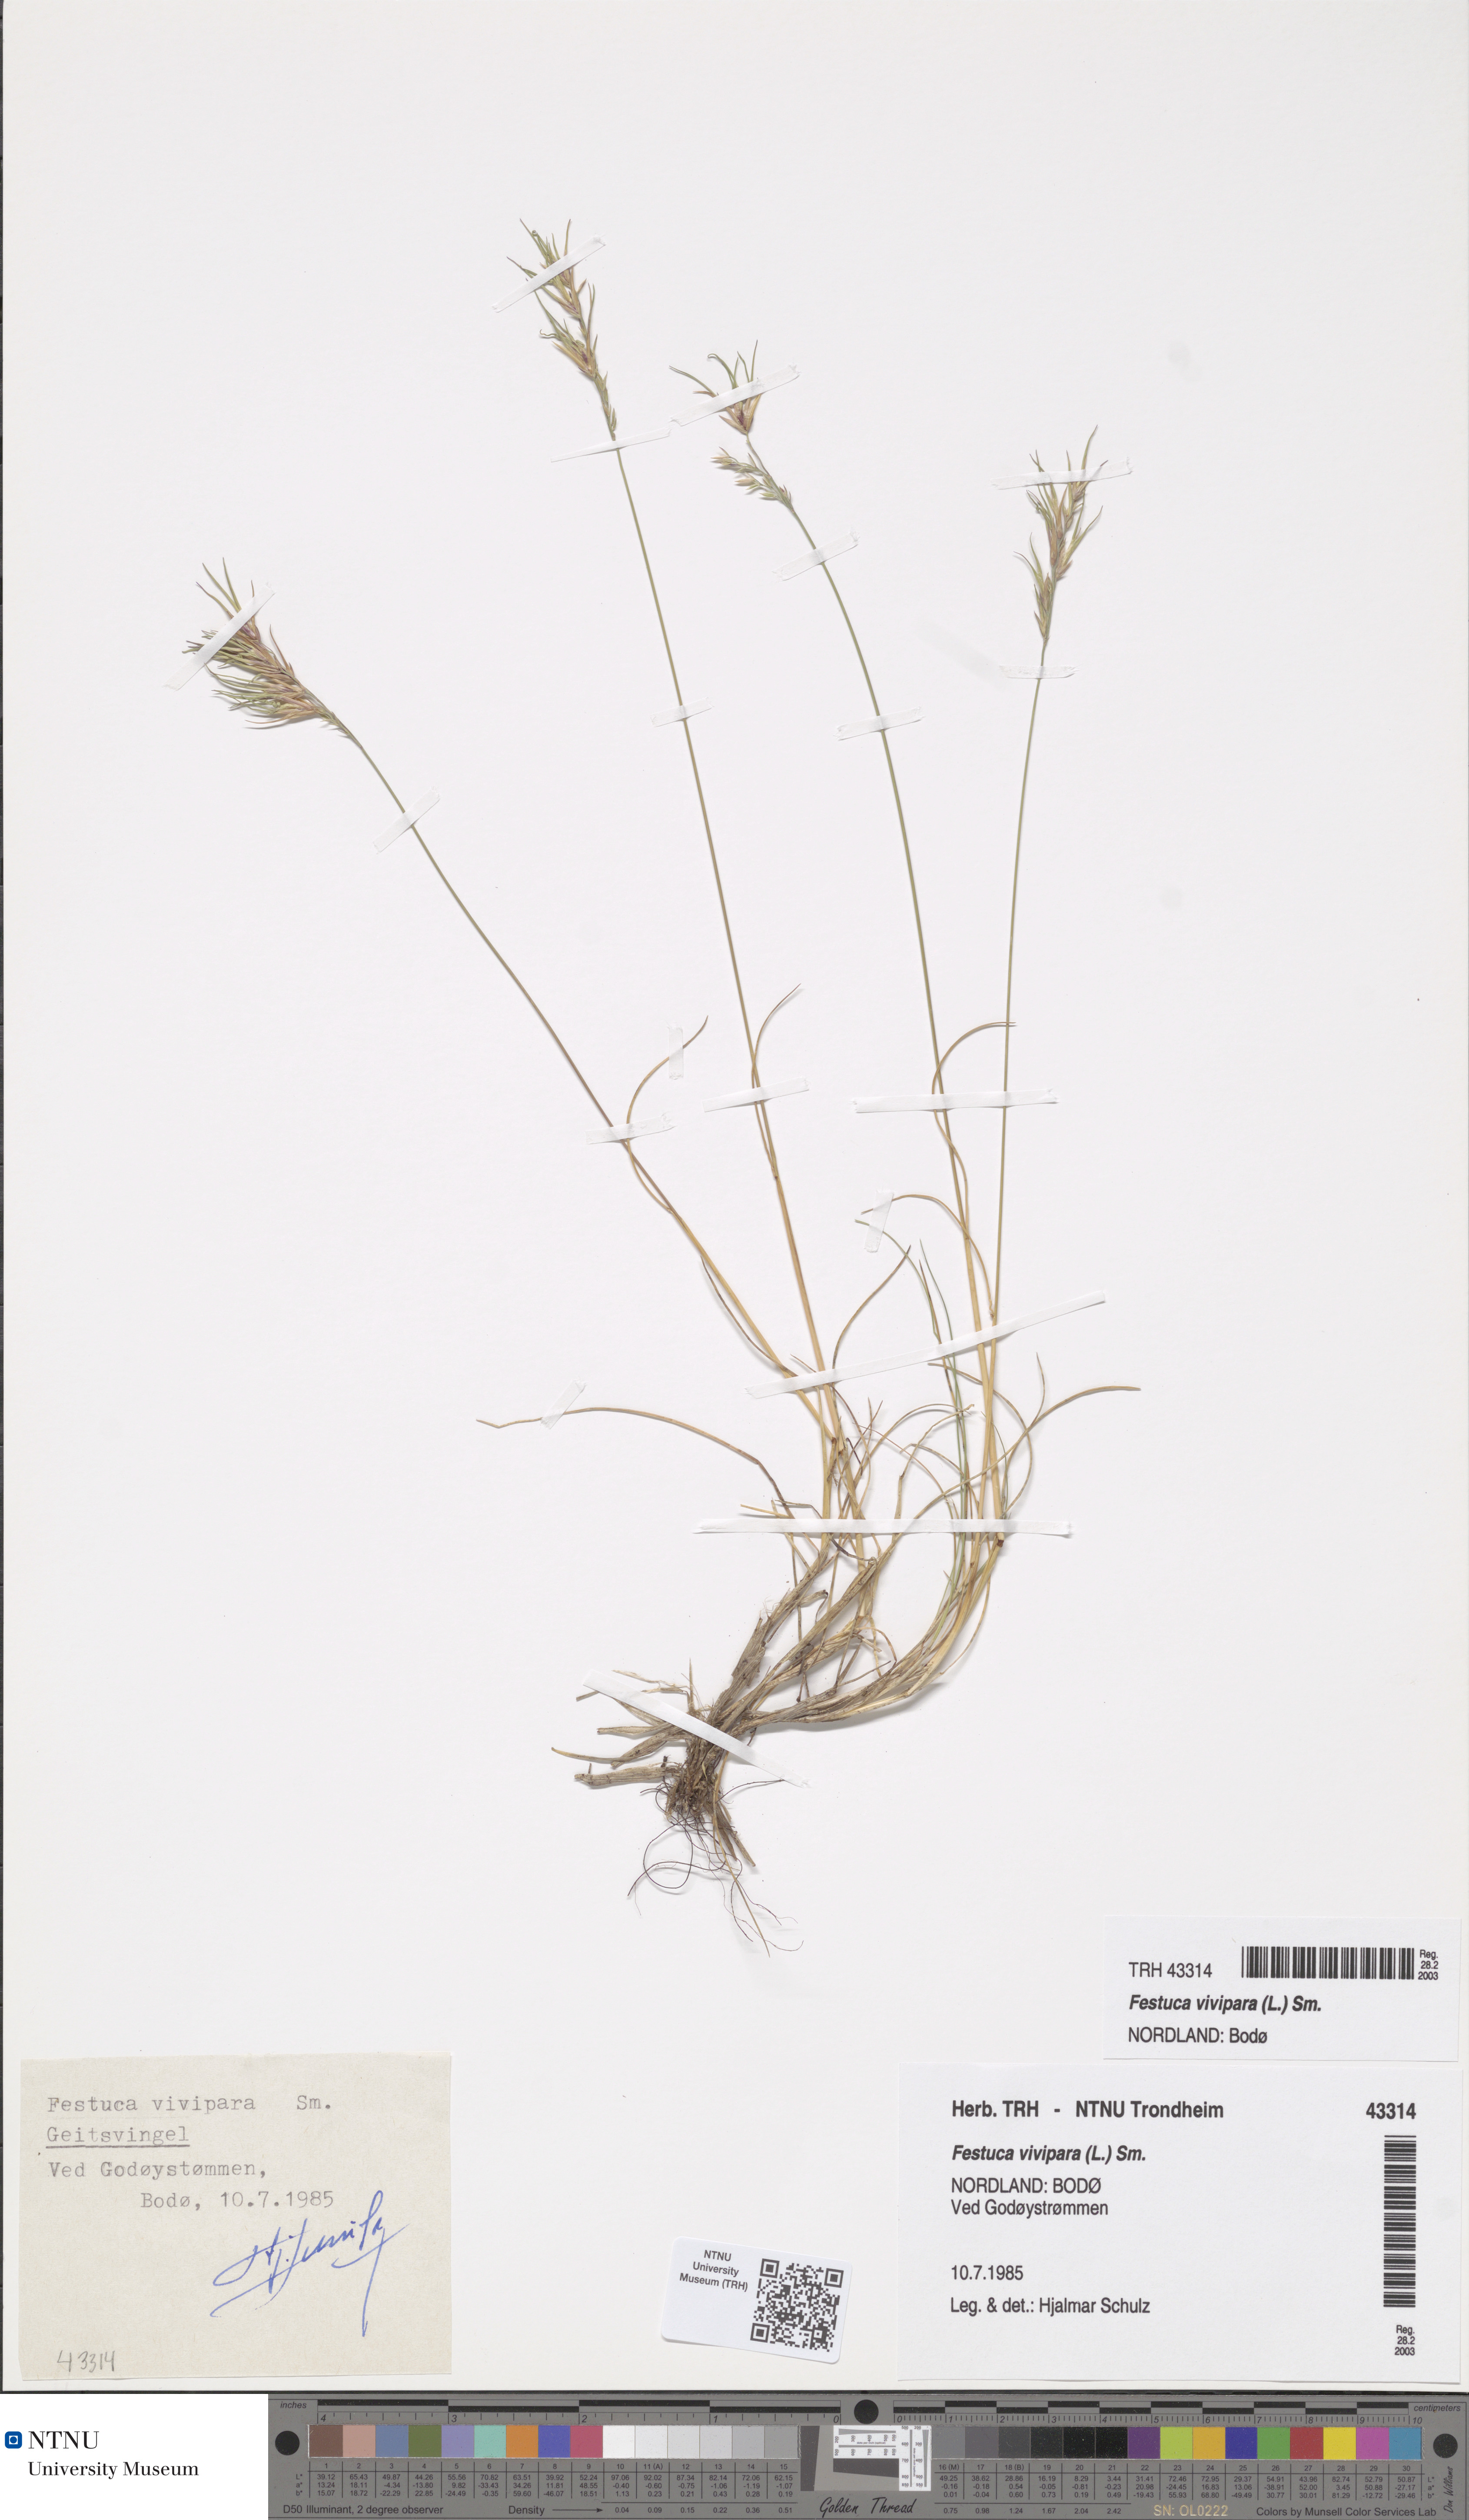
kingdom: Plantae
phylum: Tracheophyta
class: Liliopsida
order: Poales
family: Poaceae
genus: Festuca
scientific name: Festuca vivipara
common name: Viviparous sheep's-fescue
